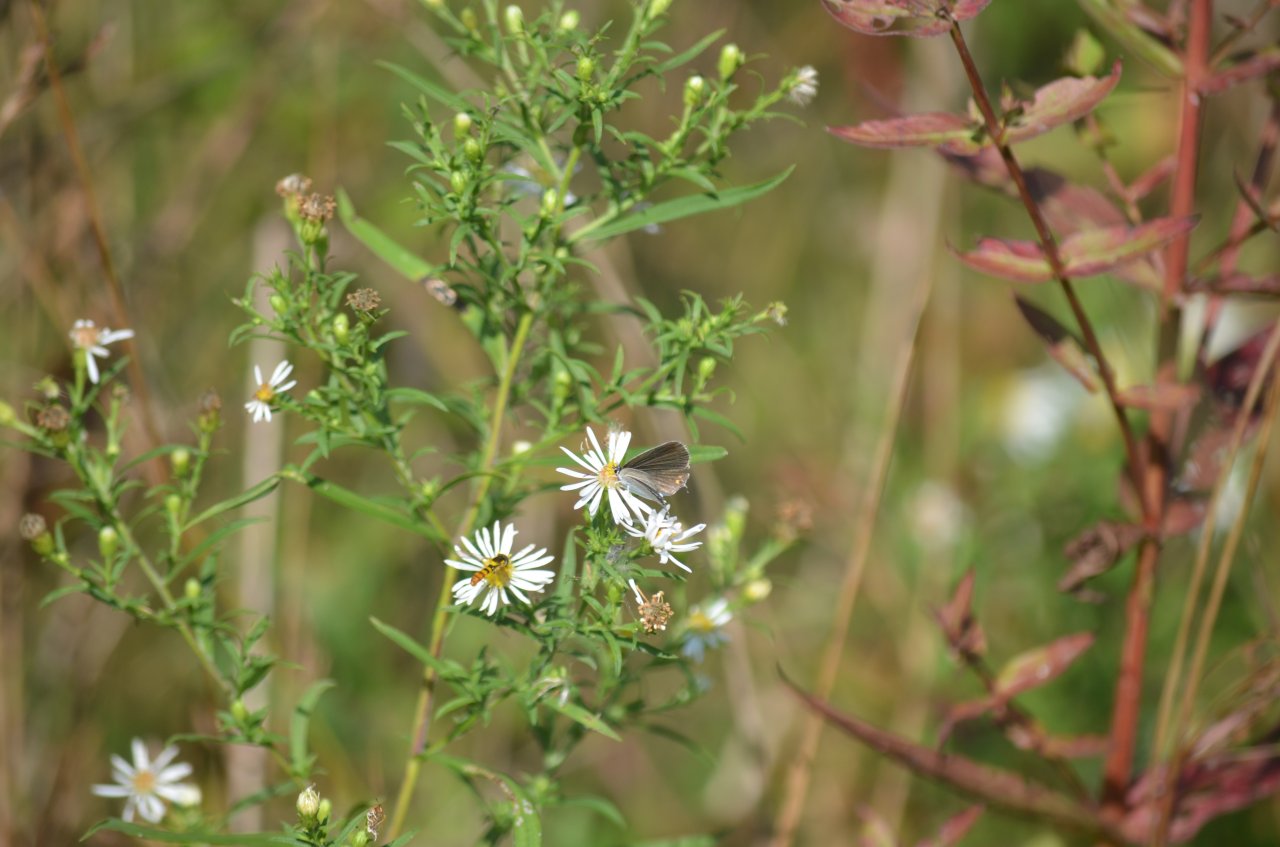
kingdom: Animalia
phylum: Arthropoda
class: Insecta
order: Lepidoptera
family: Lycaenidae
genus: Elkalyce
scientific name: Elkalyce comyntas
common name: Eastern Tailed-Blue
